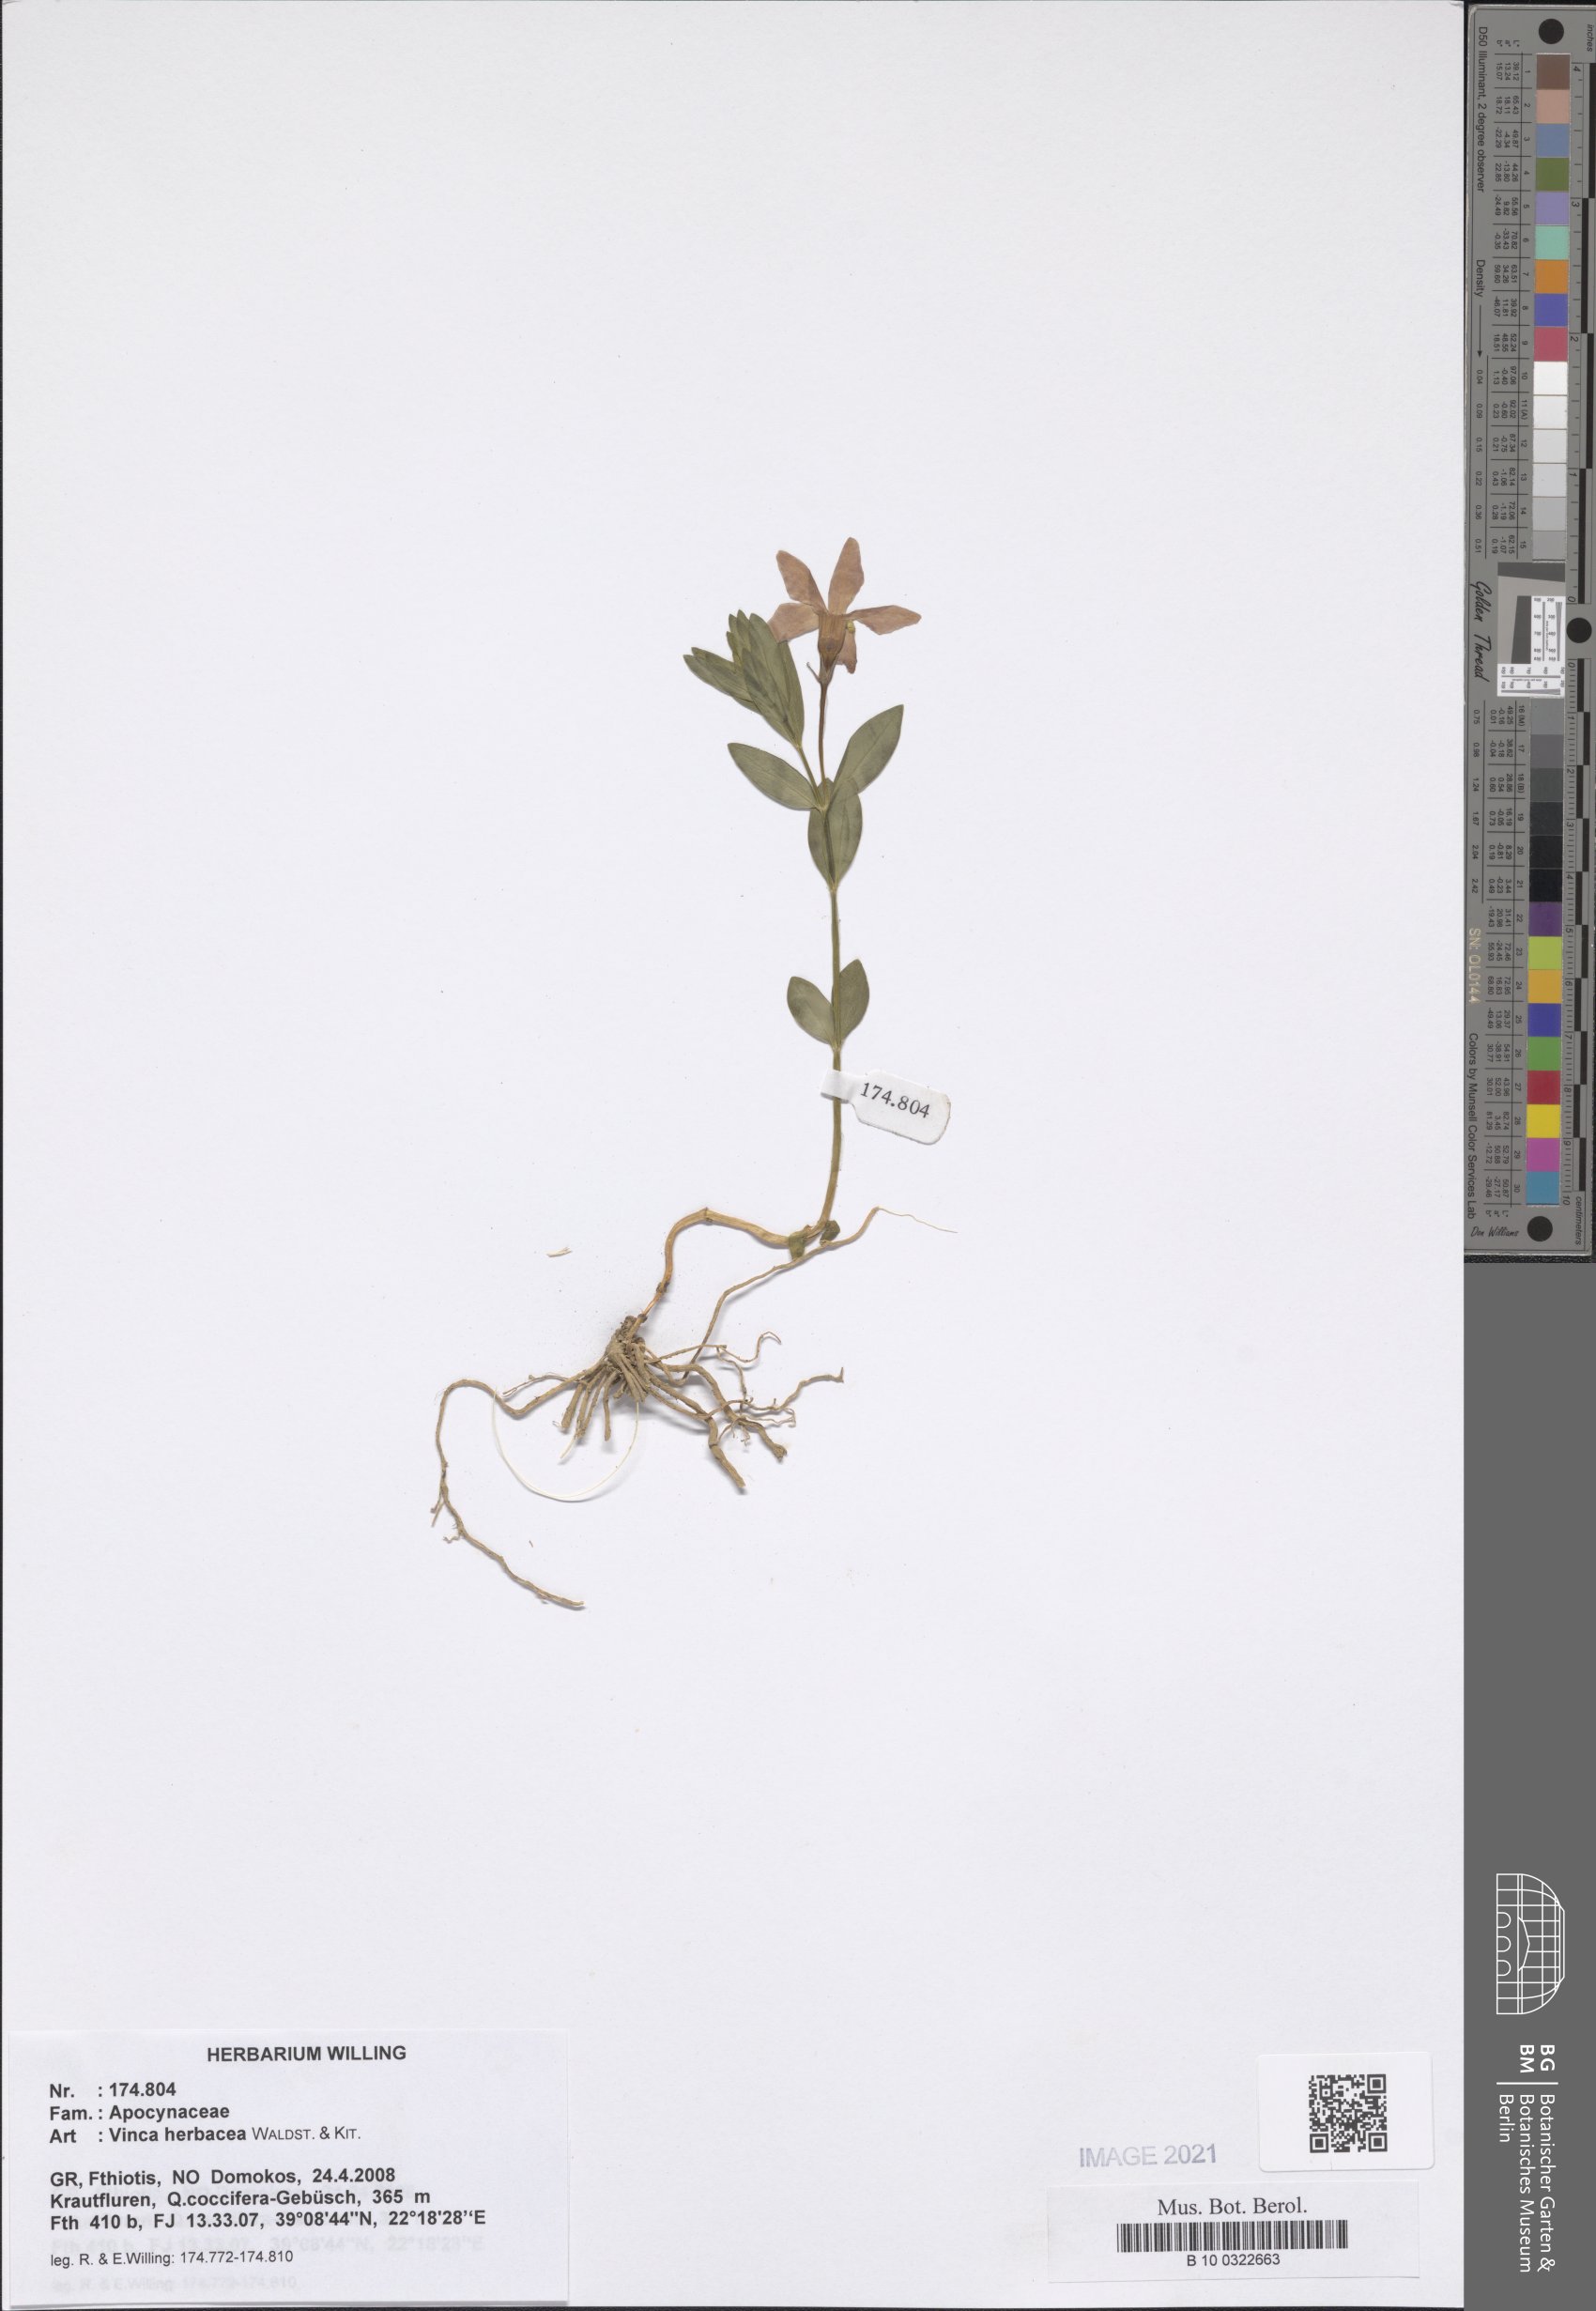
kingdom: Plantae
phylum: Tracheophyta
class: Magnoliopsida
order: Gentianales
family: Apocynaceae
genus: Vinca
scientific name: Vinca herbacea
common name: Herbaceous periwinkle
